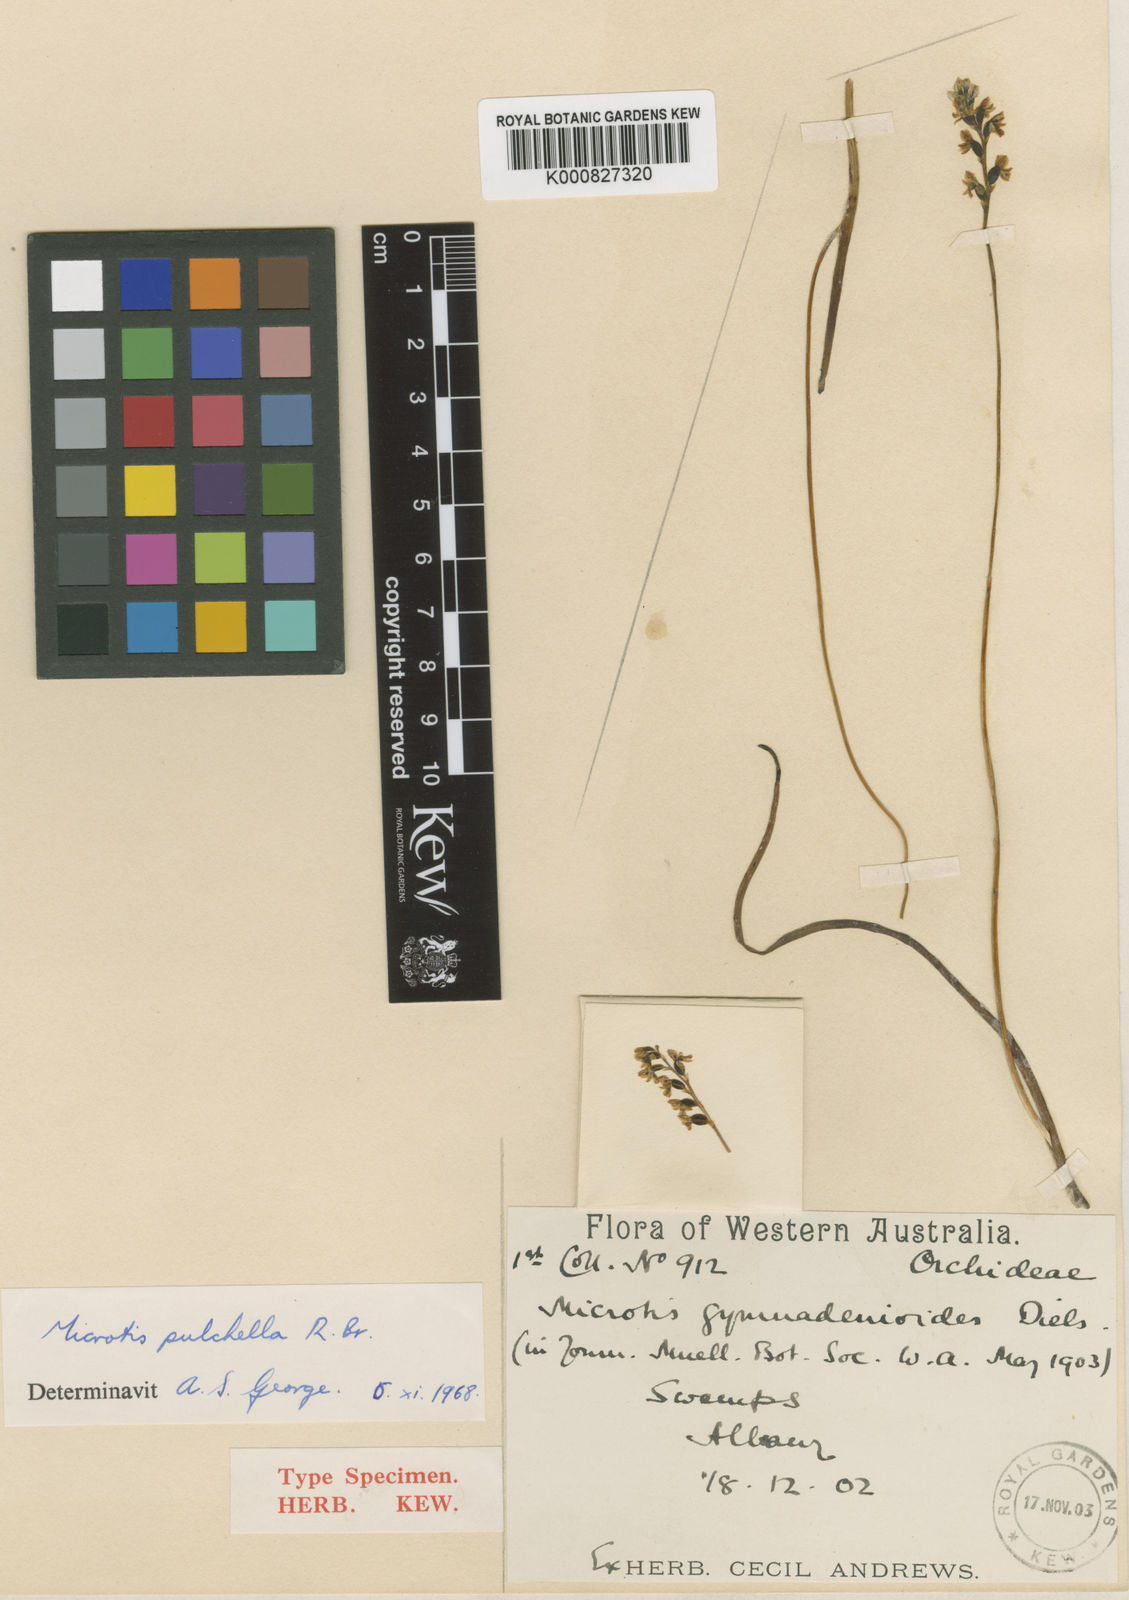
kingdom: Plantae
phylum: Tracheophyta
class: Liliopsida
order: Asparagales
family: Orchidaceae
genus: Microtis
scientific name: Microtis pulchella
